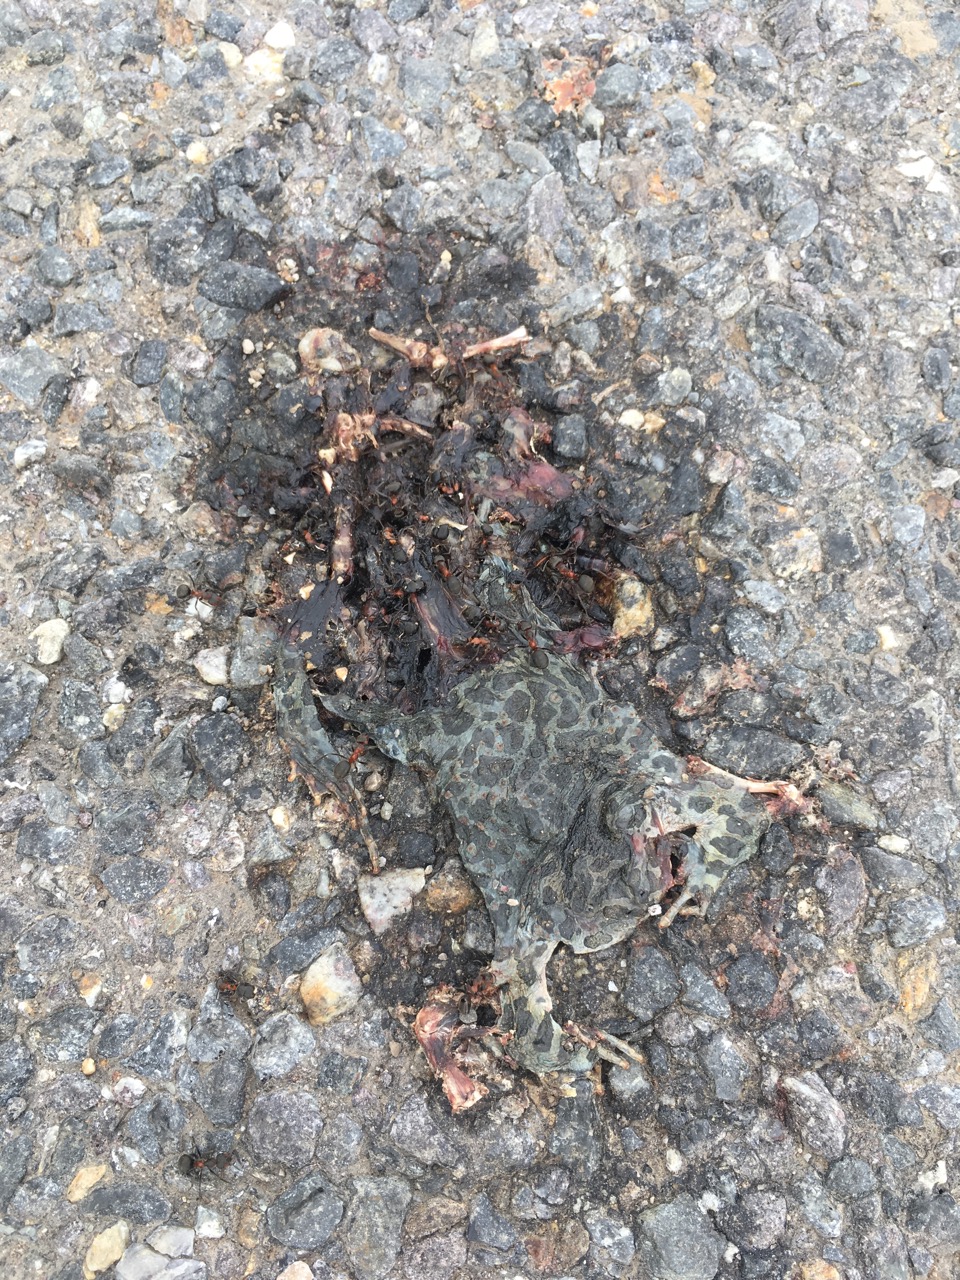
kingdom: Animalia
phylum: Chordata
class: Amphibia
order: Anura
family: Bufonidae
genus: Bufotes
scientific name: Bufotes viridis
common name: European green toad
